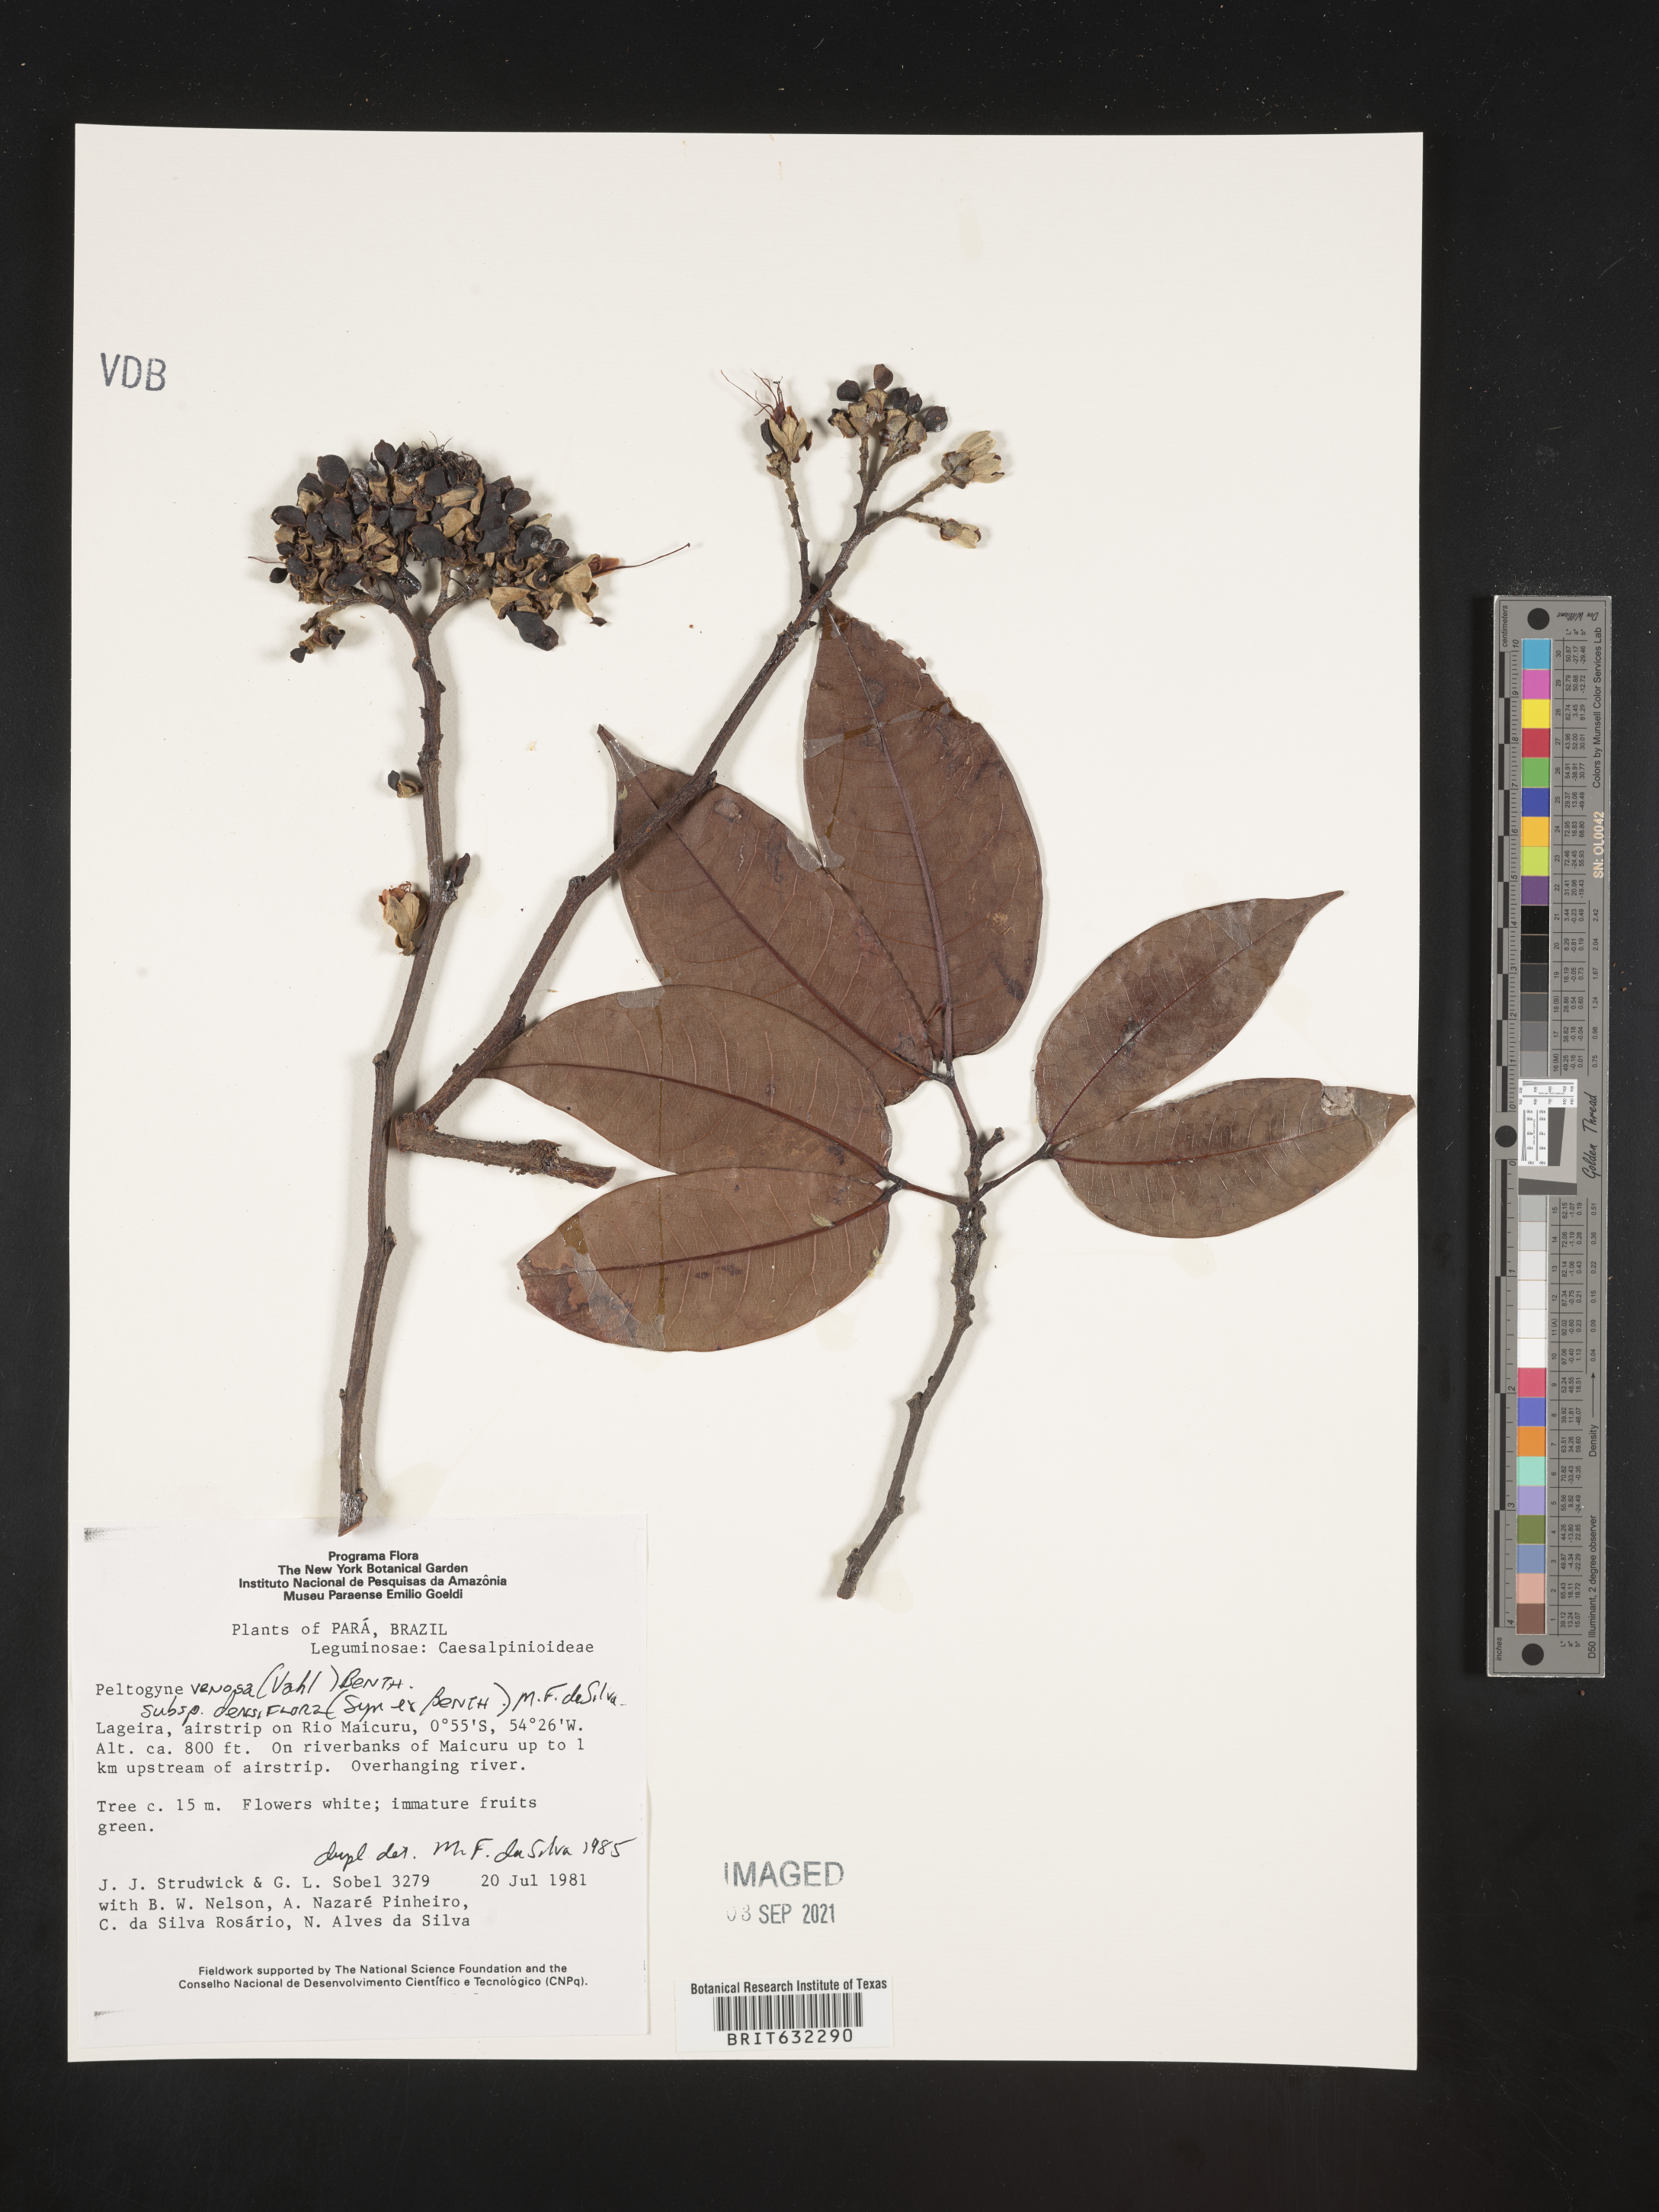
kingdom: Plantae
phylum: Tracheophyta
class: Magnoliopsida
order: Fabales
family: Fabaceae
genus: Peltogyne
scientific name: Peltogyne
